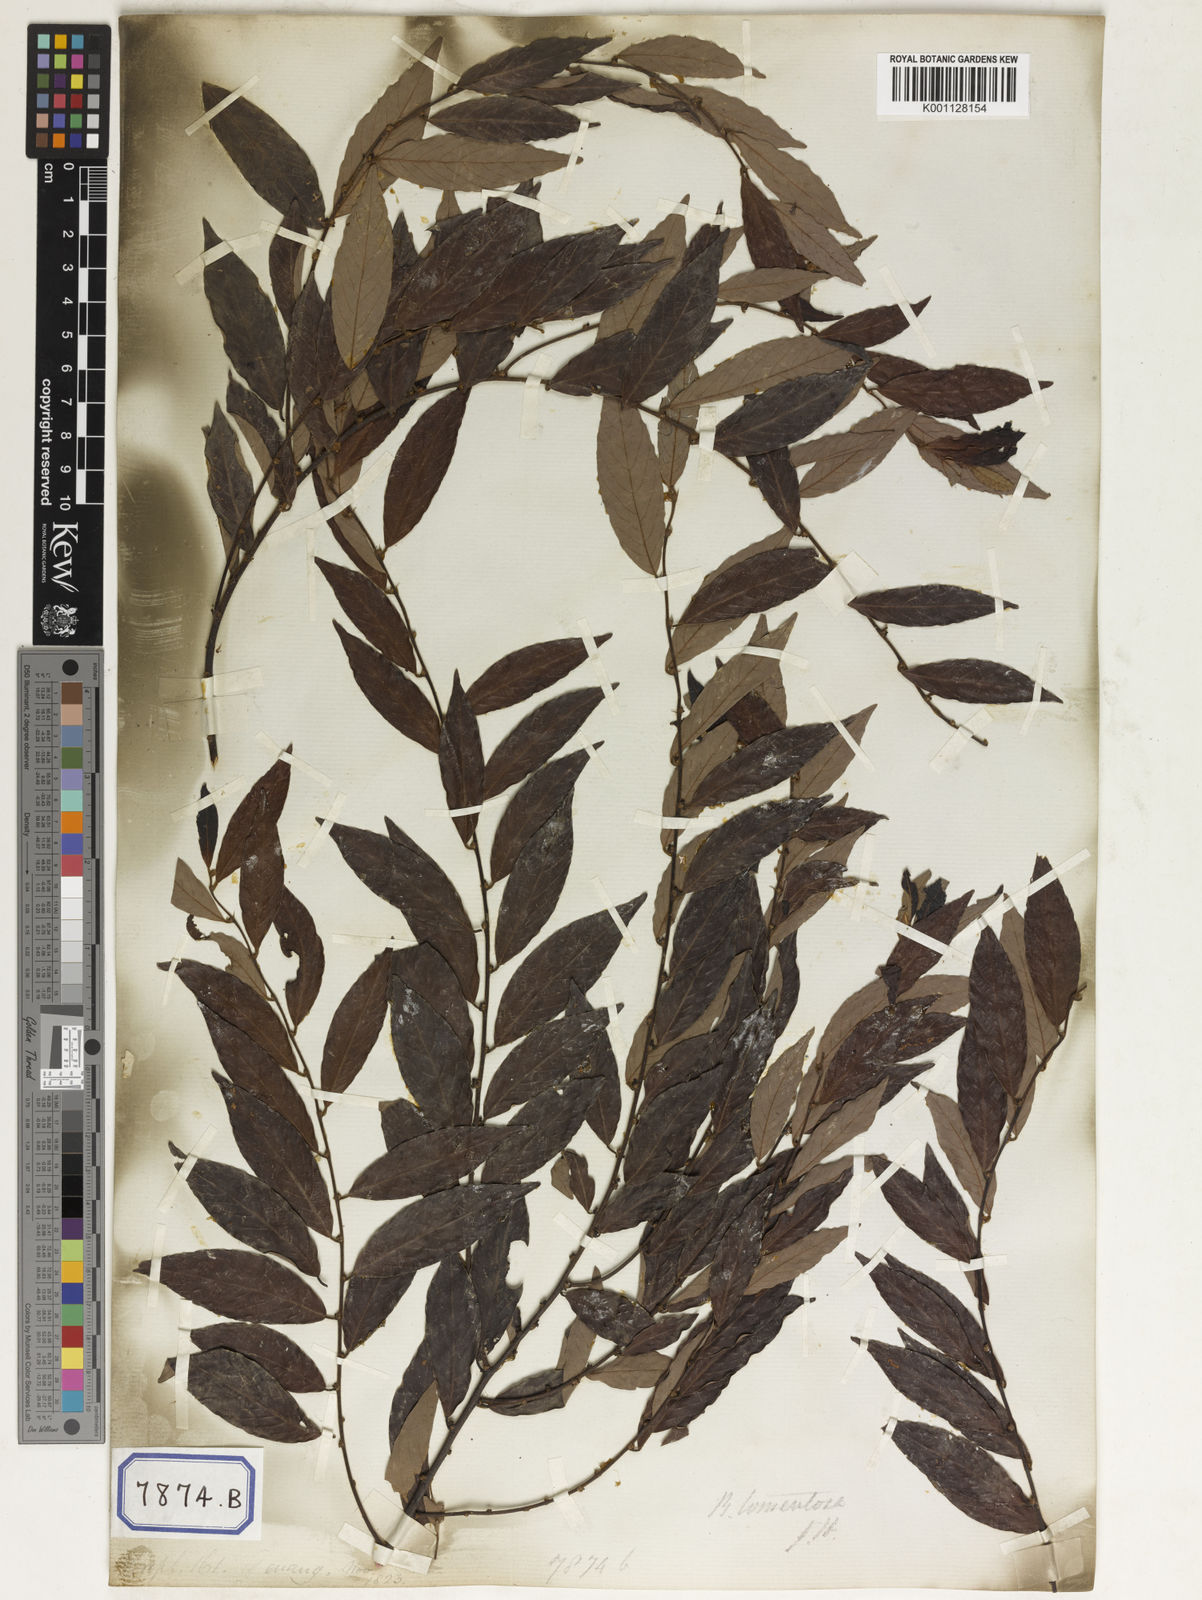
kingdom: Plantae
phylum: Tracheophyta
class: Magnoliopsida
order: Malpighiales
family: Euphorbiaceae
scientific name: Euphorbiaceae
